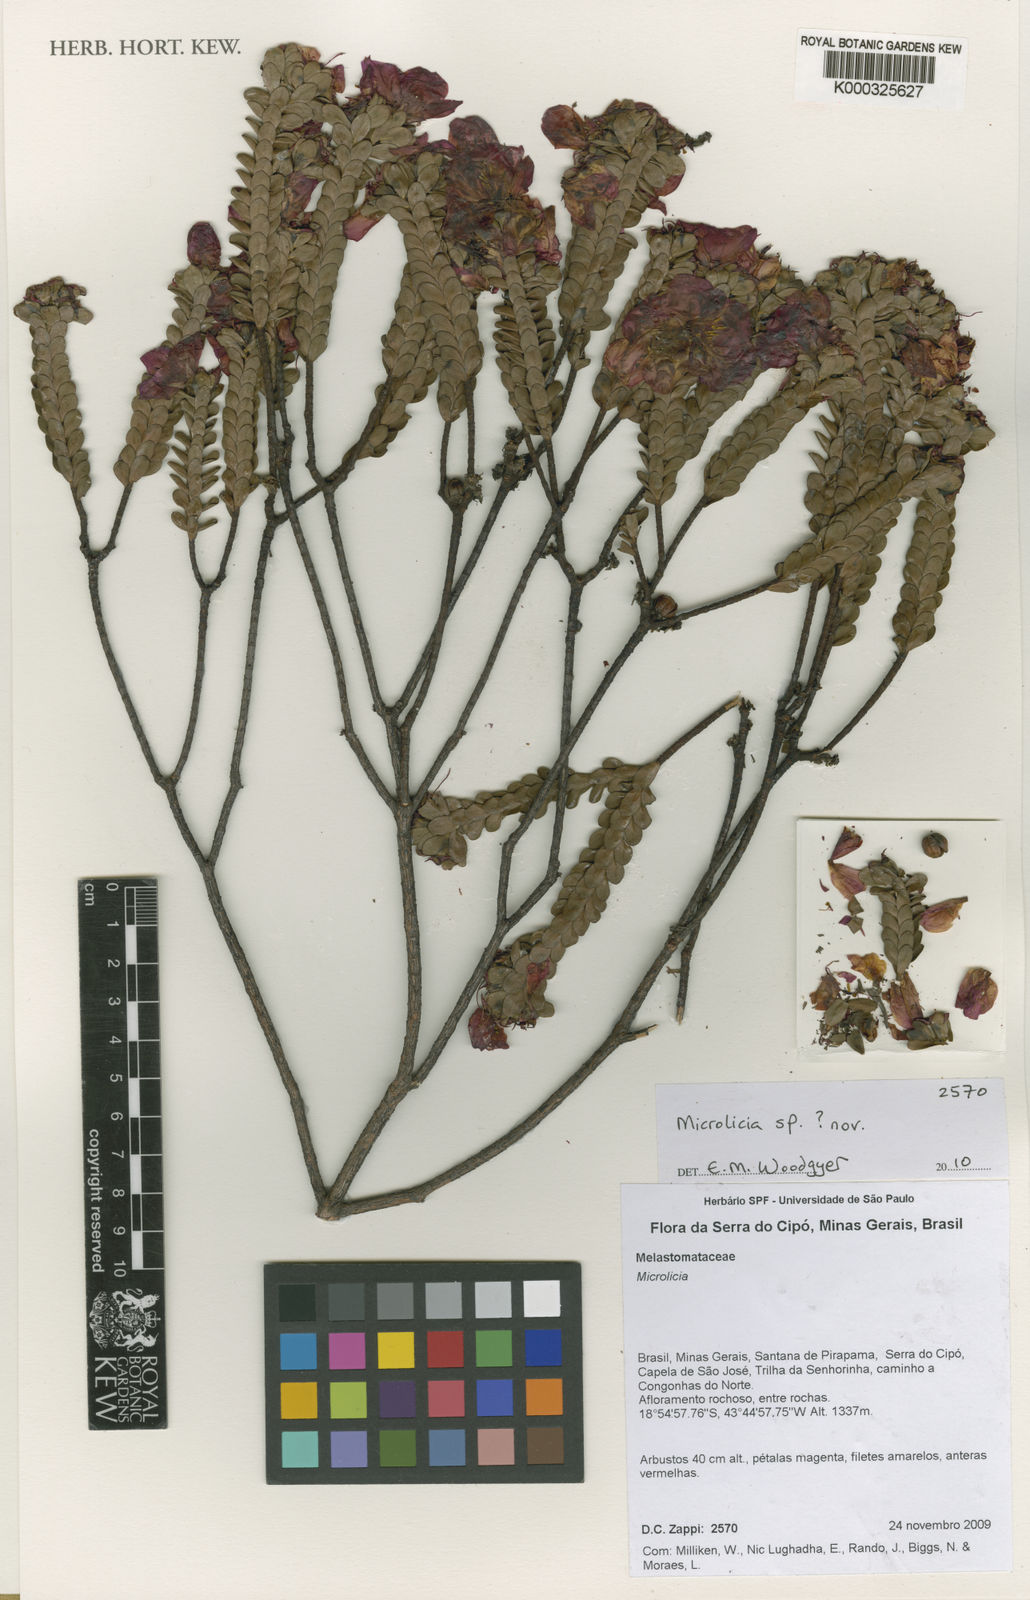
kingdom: Plantae
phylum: Tracheophyta
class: Magnoliopsida
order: Myrtales
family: Melastomataceae
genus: Microlicia
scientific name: Microlicia riedeliana
